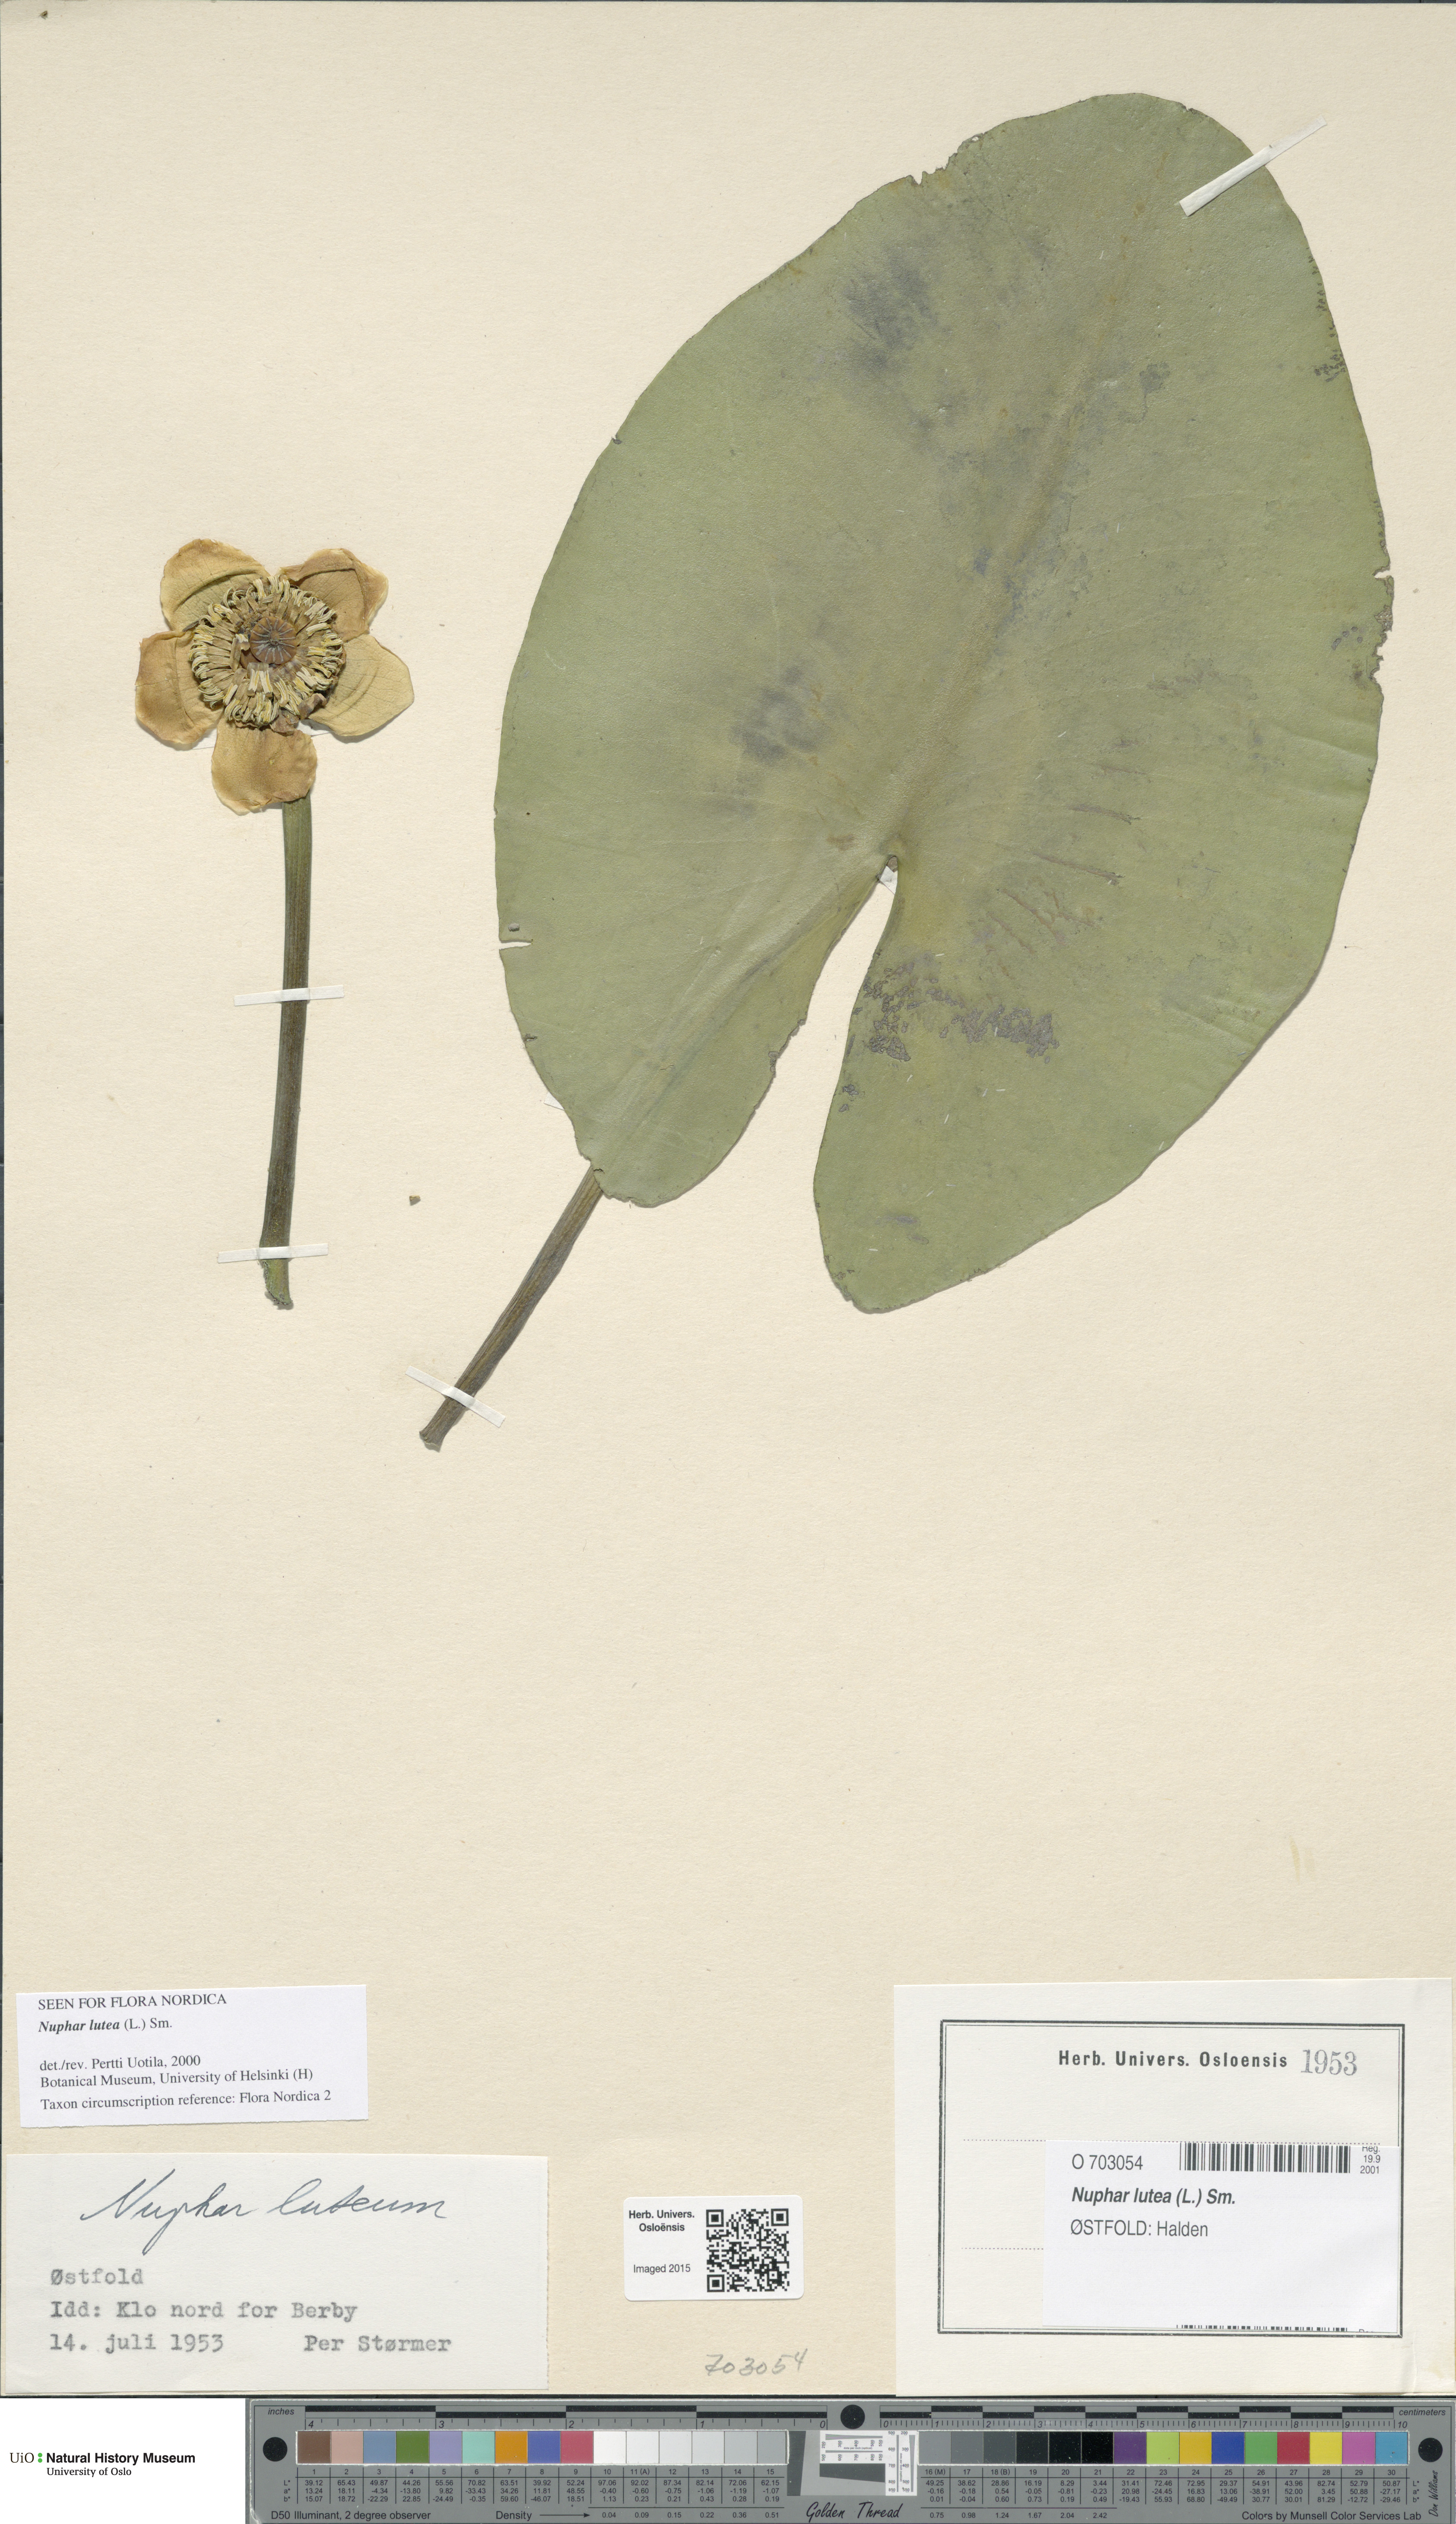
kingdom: Plantae
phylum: Tracheophyta
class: Magnoliopsida
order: Nymphaeales
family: Nymphaeaceae
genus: Nuphar
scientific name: Nuphar lutea
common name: Yellow water-lily
